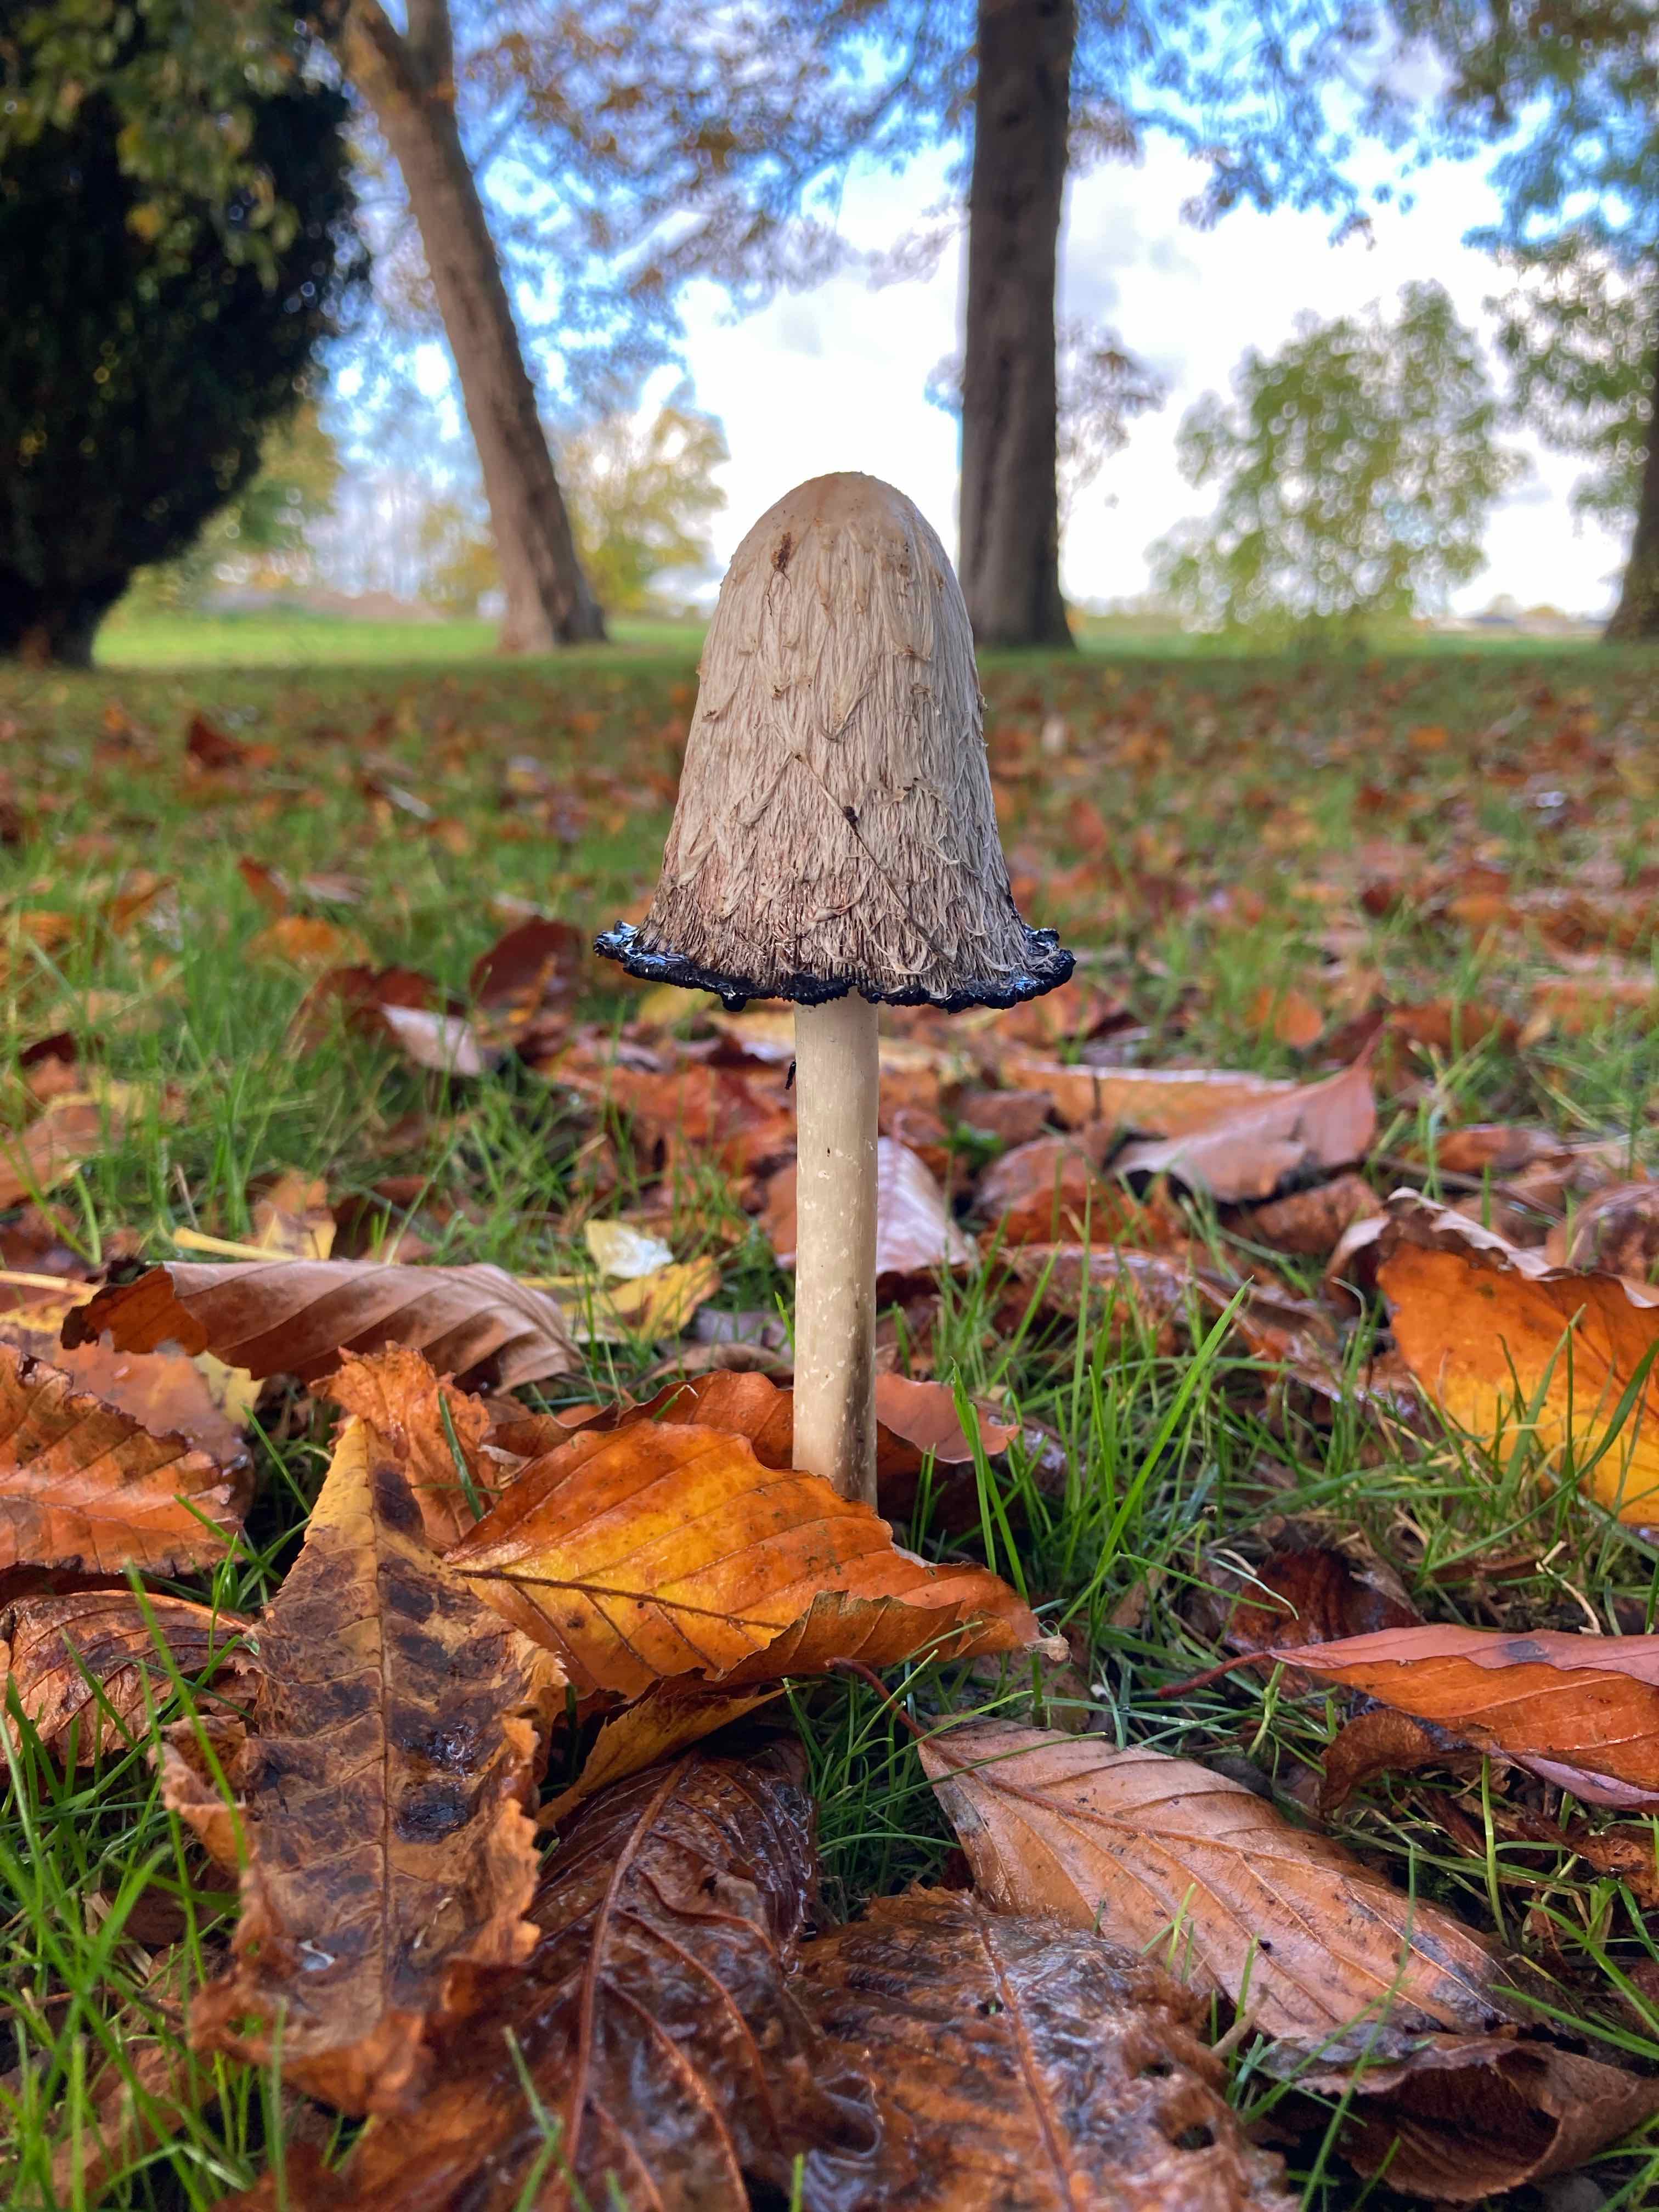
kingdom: Fungi
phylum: Basidiomycota
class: Agaricomycetes
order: Agaricales
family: Agaricaceae
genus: Coprinus
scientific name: Coprinus comatus
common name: stor parykhat
